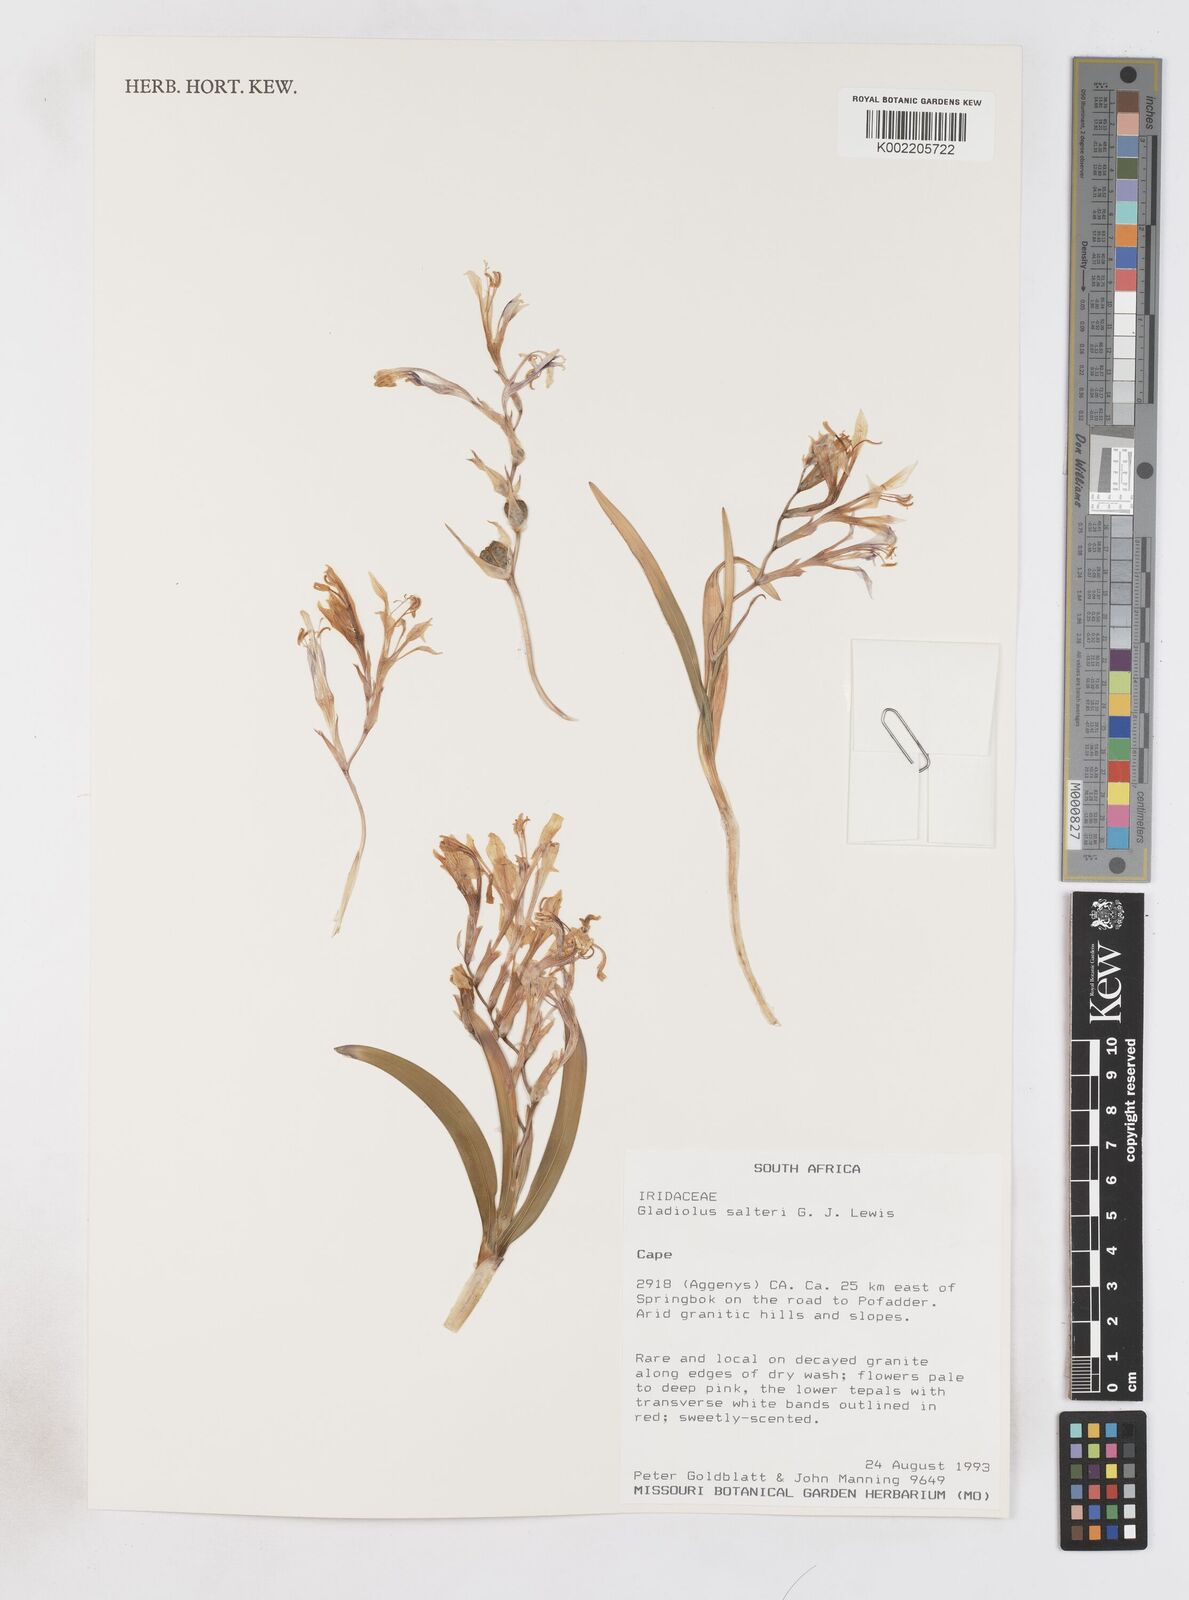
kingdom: Plantae
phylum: Tracheophyta
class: Liliopsida
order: Asparagales
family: Iridaceae
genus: Gladiolus
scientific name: Gladiolus salteri
